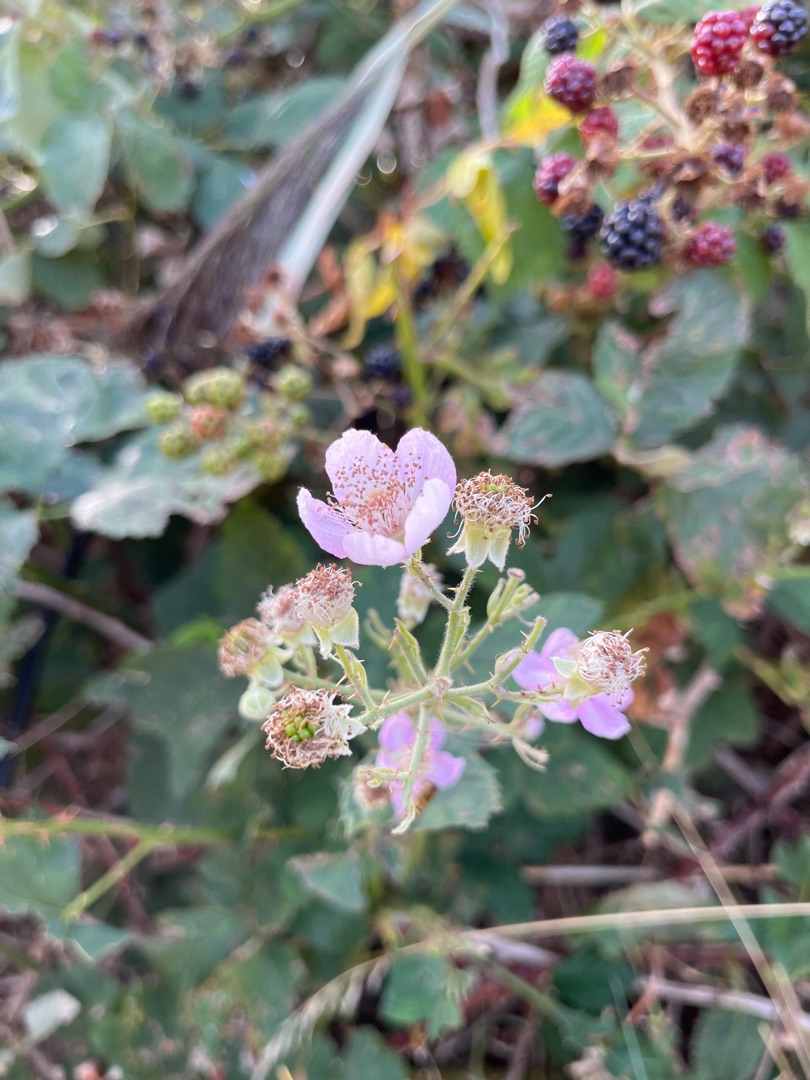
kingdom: Plantae
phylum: Tracheophyta
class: Magnoliopsida
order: Rosales
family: Rosaceae
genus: Rubus
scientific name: Rubus
